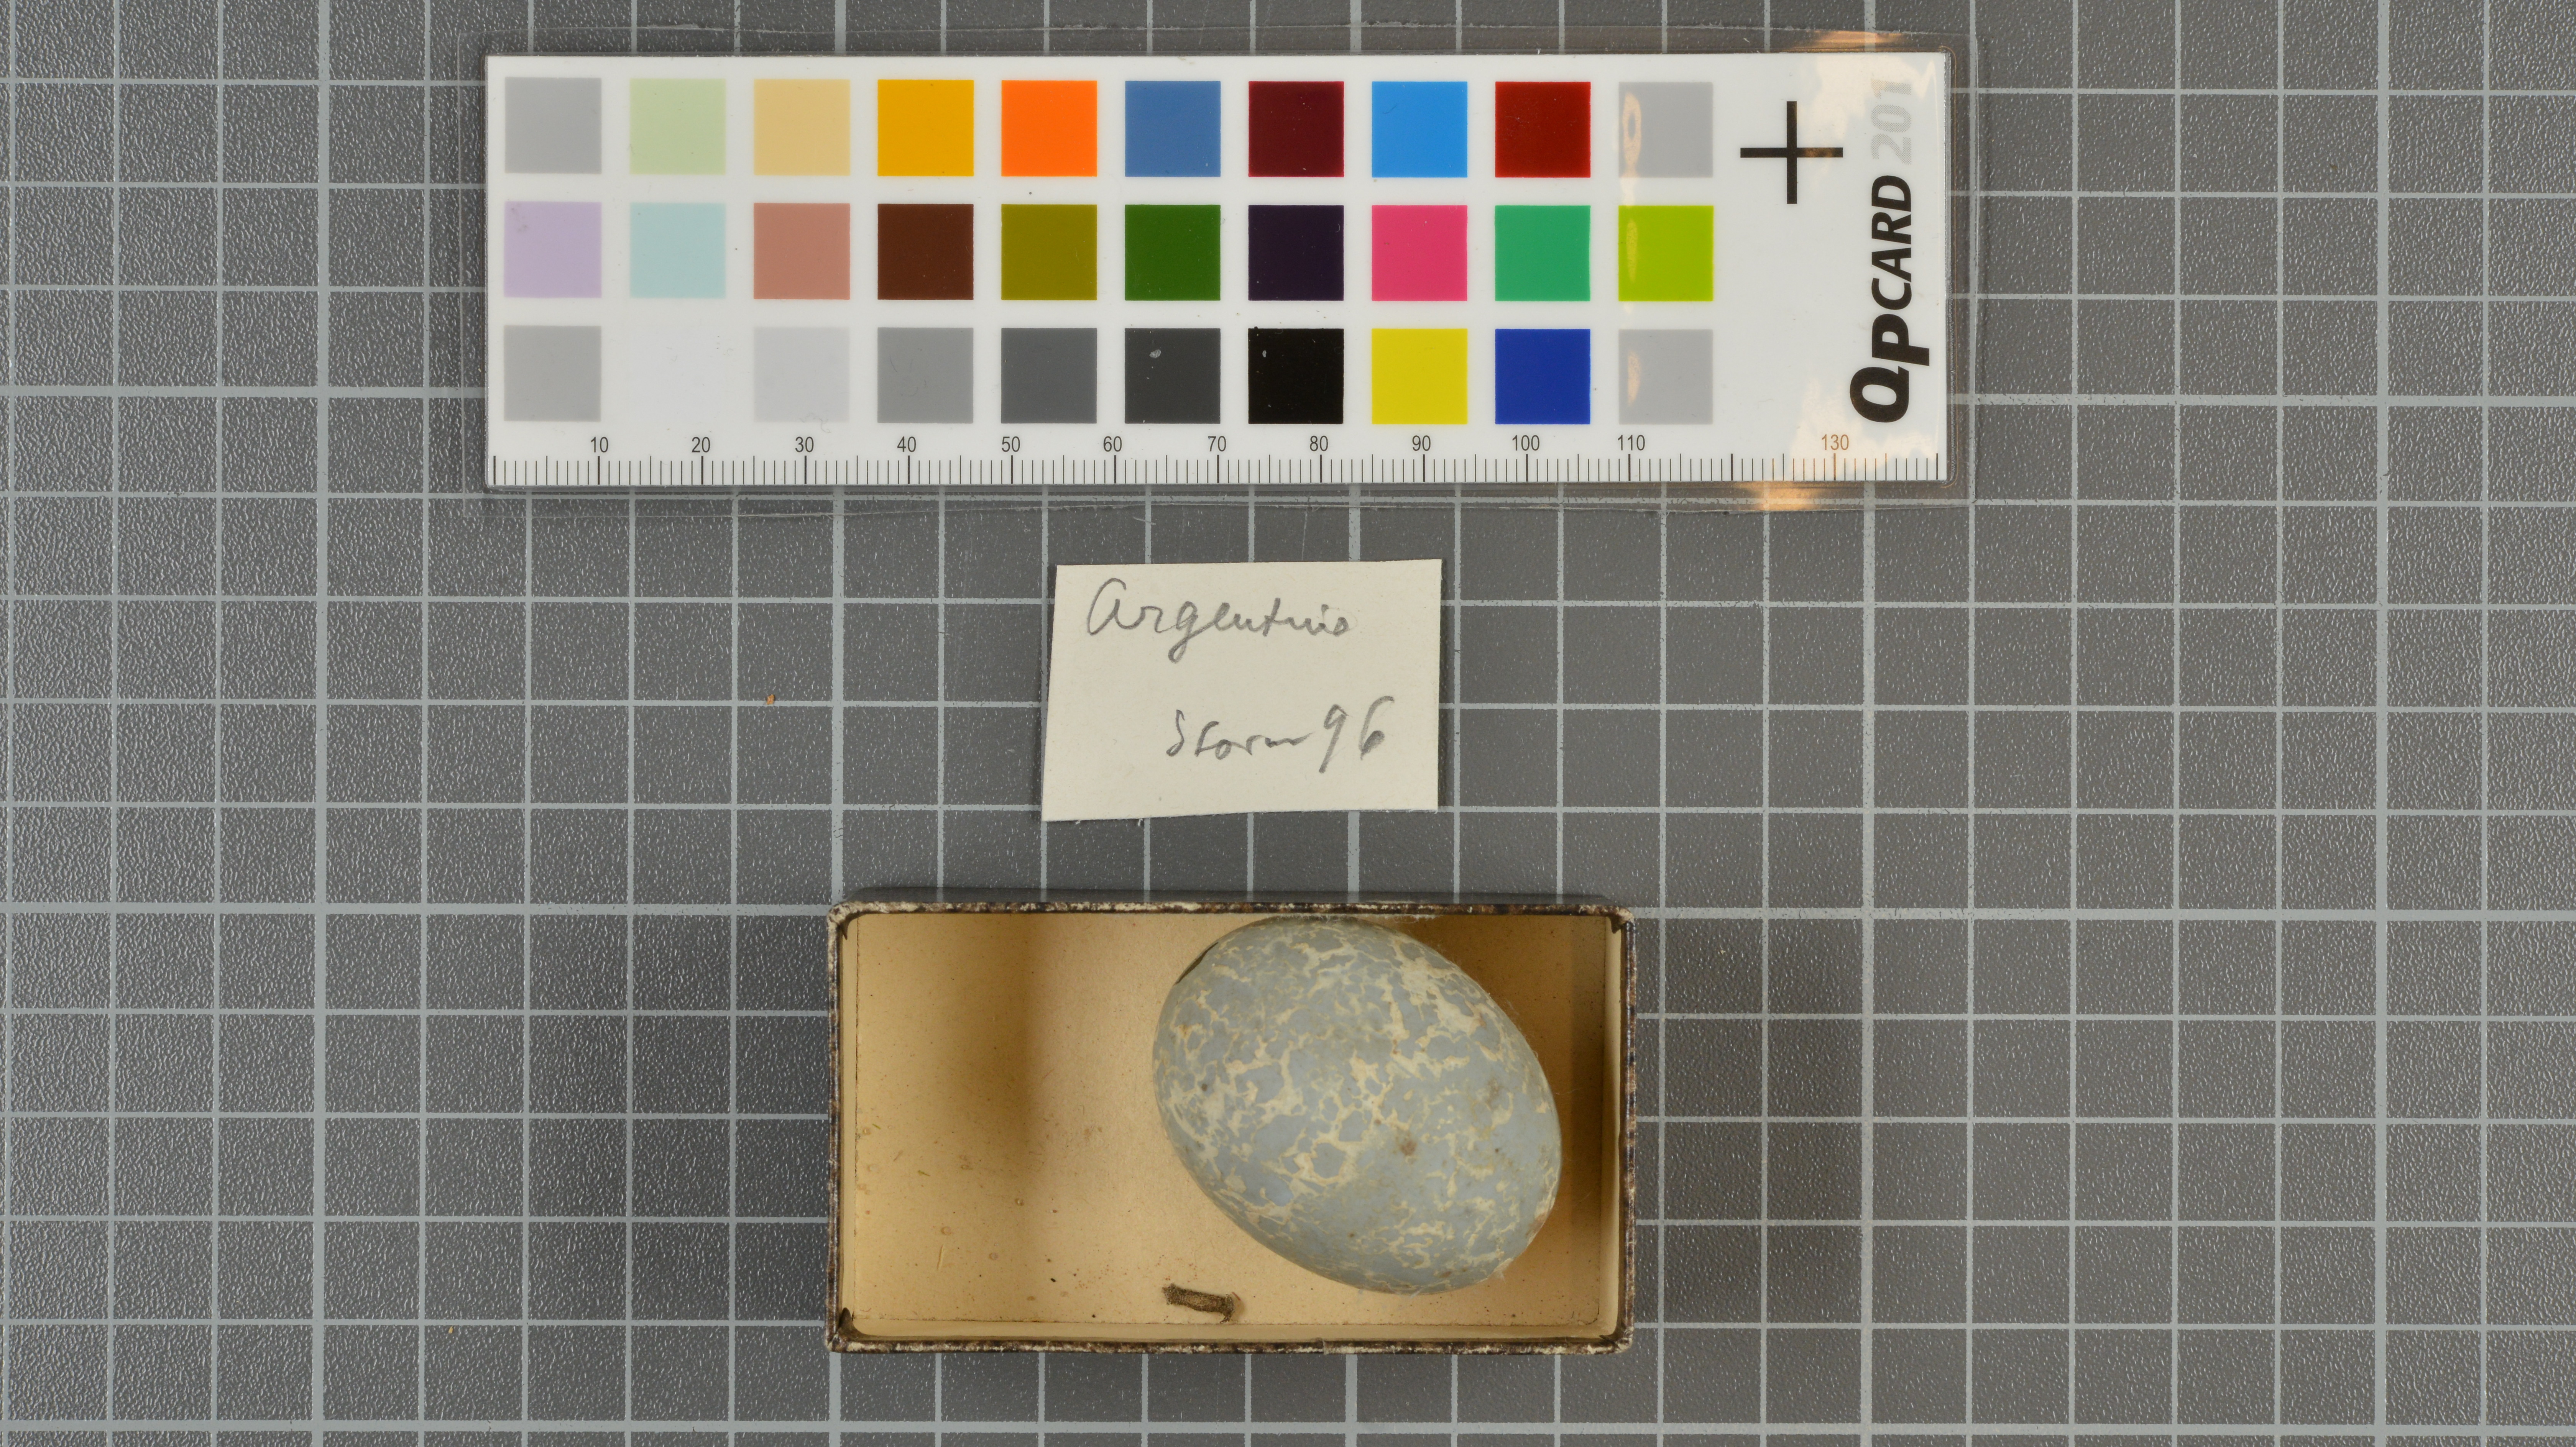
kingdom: Animalia
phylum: Chordata
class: Aves
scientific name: Aves
